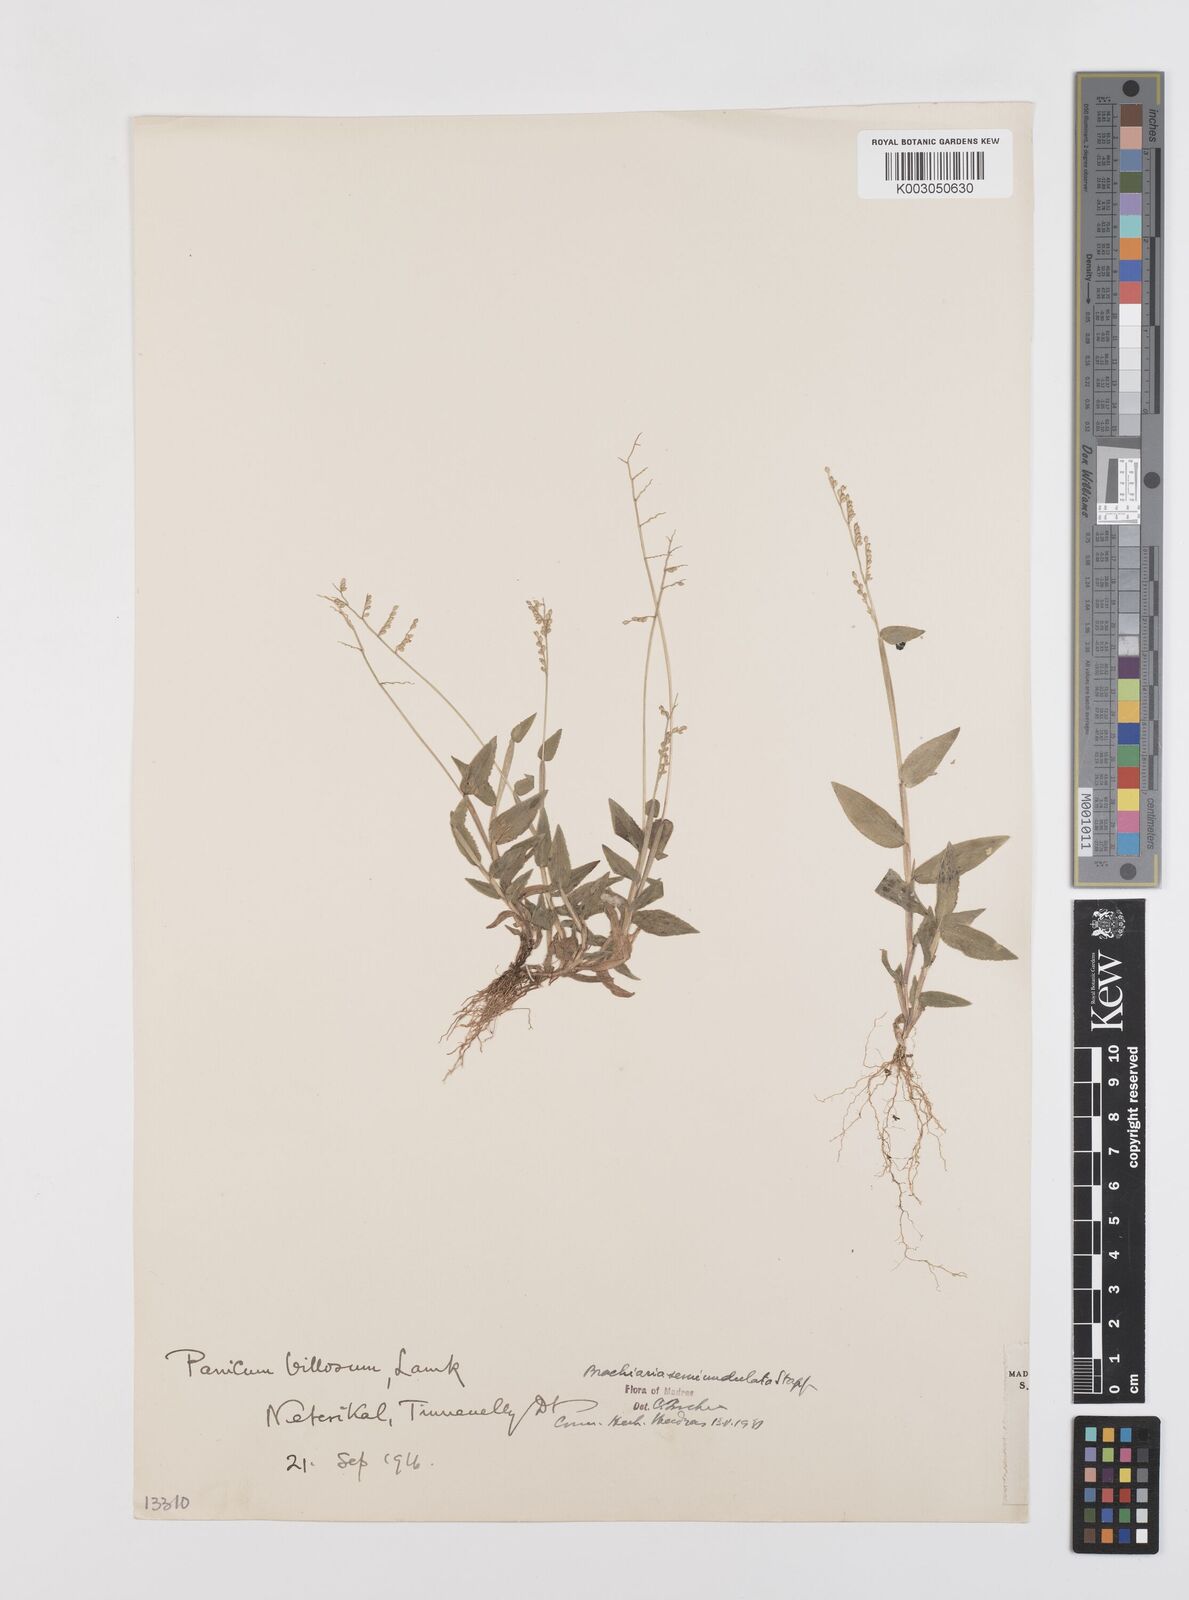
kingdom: Plantae
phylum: Tracheophyta
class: Liliopsida
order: Poales
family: Poaceae
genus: Urochloa
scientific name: Urochloa semiundulata
